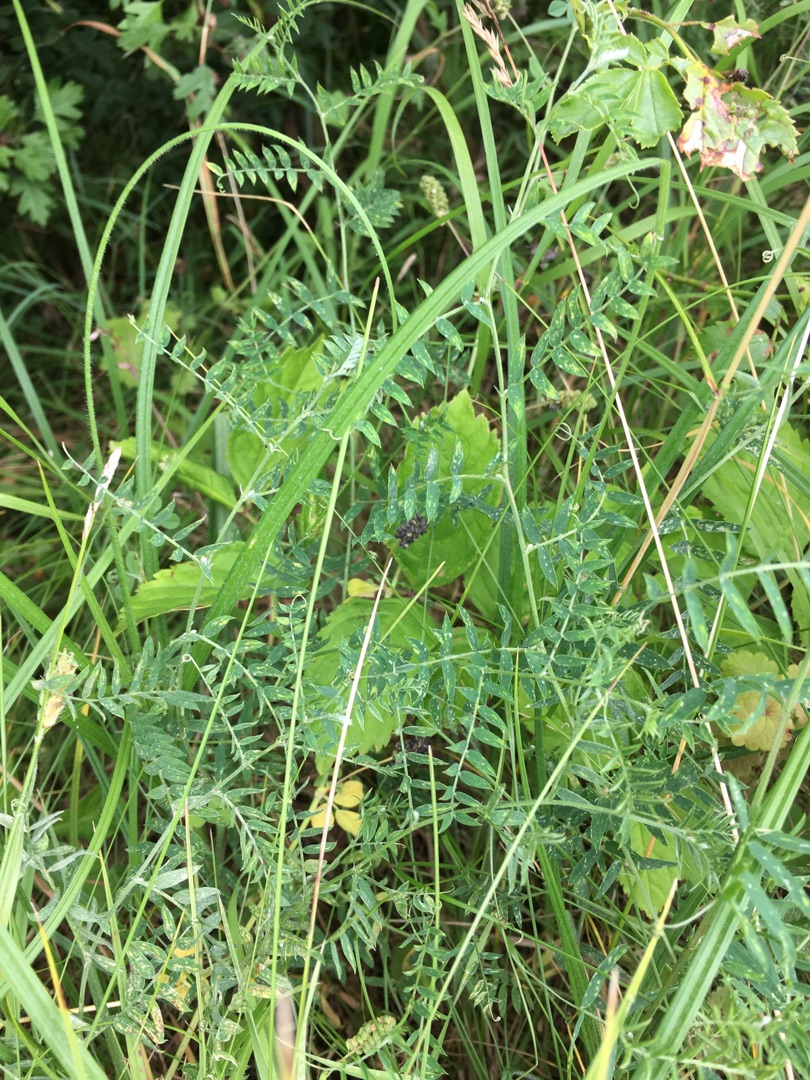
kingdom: Plantae
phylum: Tracheophyta
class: Magnoliopsida
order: Fabales
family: Fabaceae
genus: Vicia
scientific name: Vicia cracca
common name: Muse-vikke
